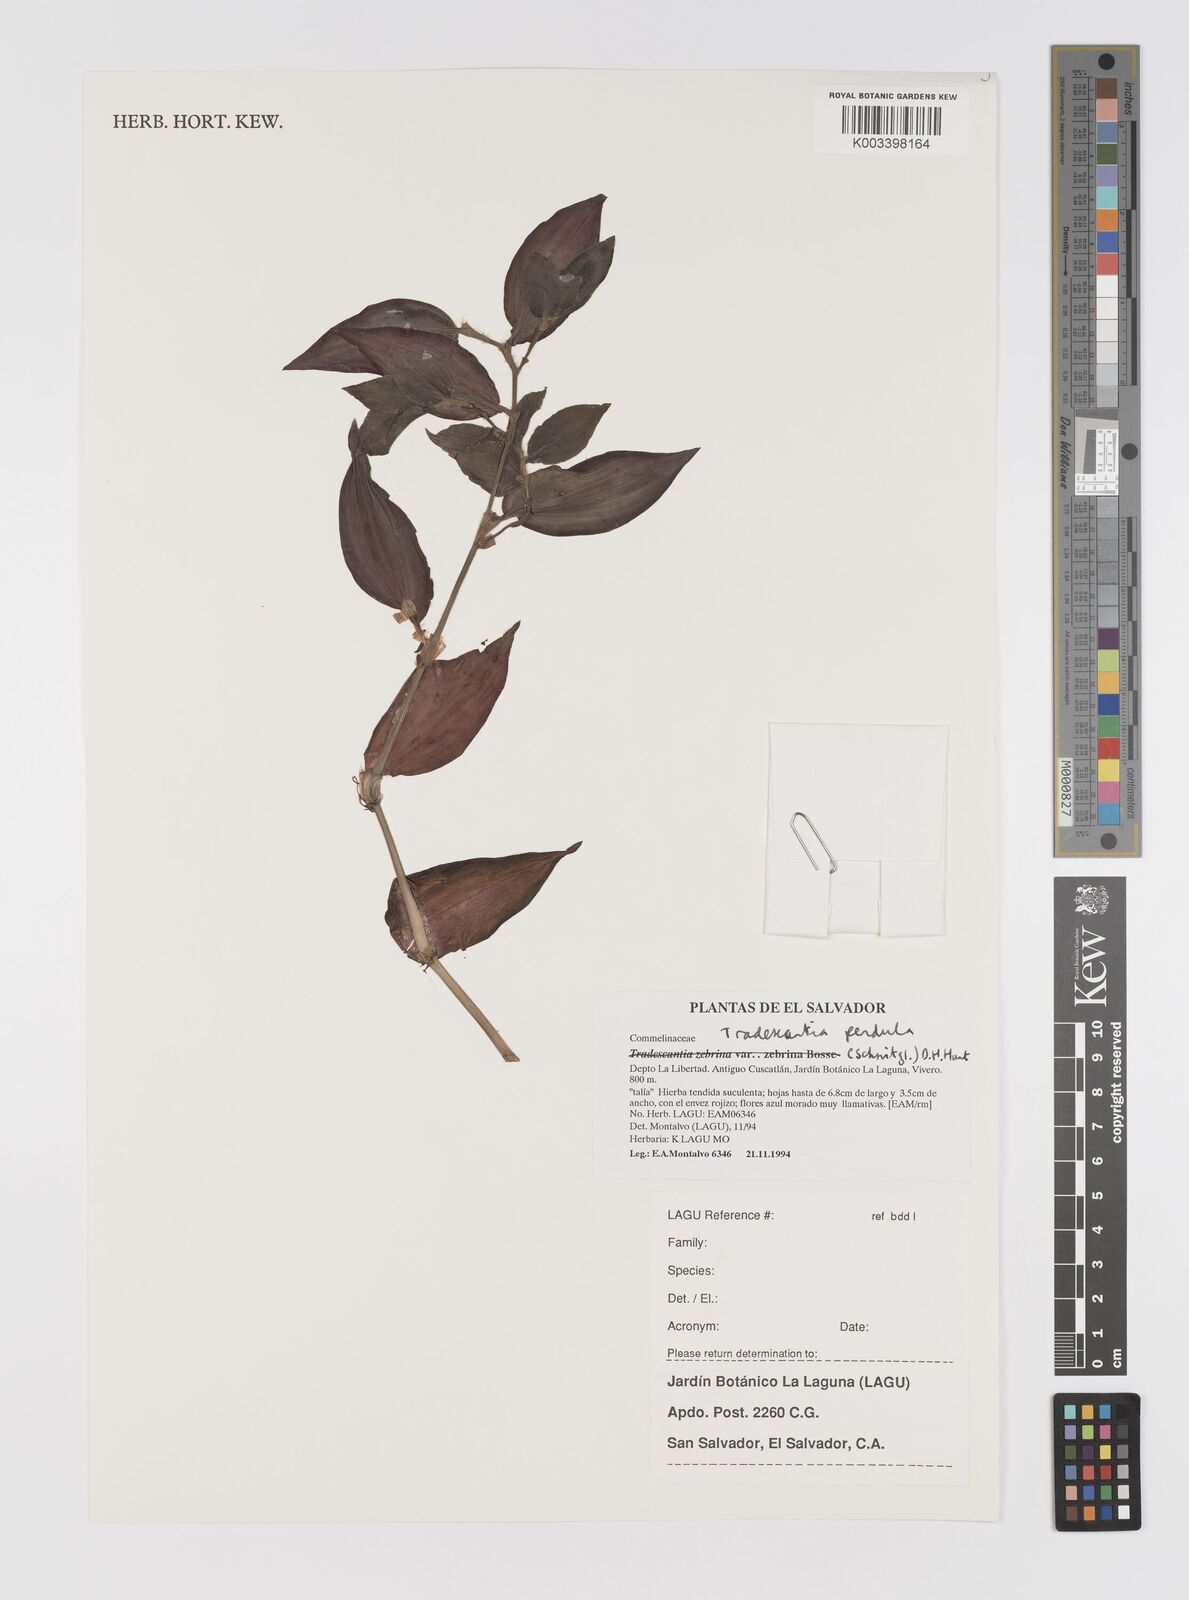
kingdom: Plantae
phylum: Tracheophyta
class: Liliopsida
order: Commelinales
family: Commelinaceae
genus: Tradescantia
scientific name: Tradescantia zebrina
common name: Inchplant
